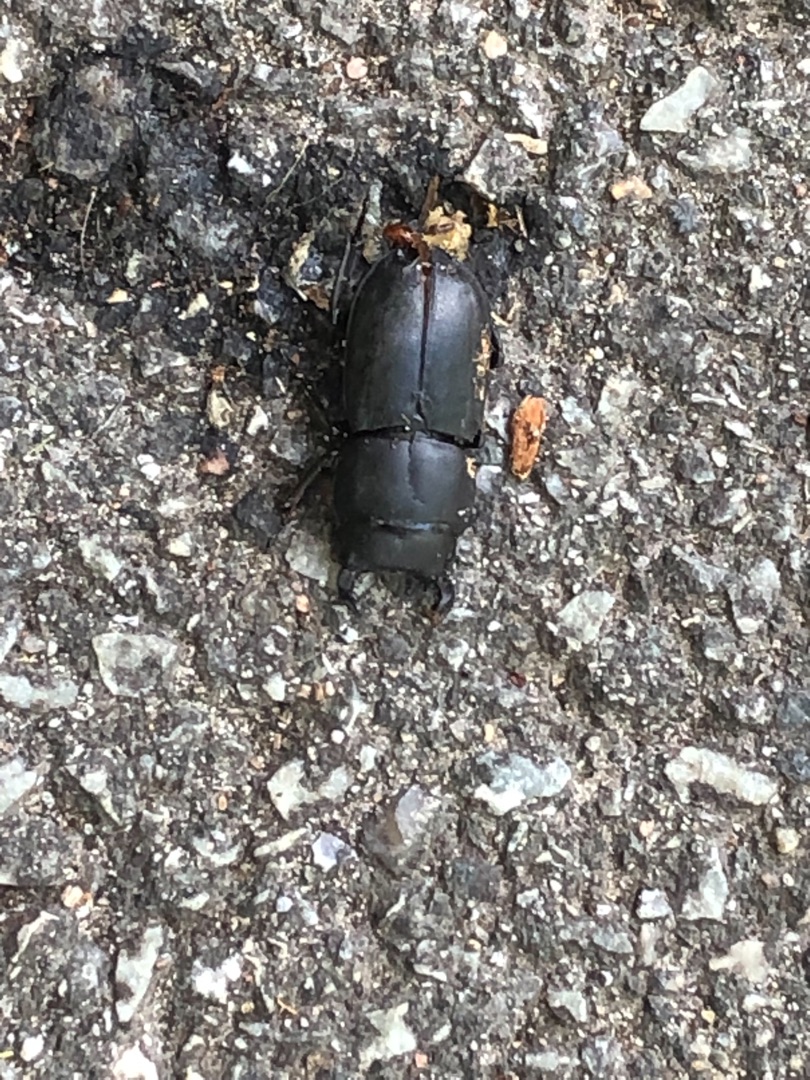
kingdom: Animalia
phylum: Arthropoda
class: Insecta
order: Coleoptera
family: Lucanidae
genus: Dorcus
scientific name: Dorcus parallelipipedus
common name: Bøghjort
